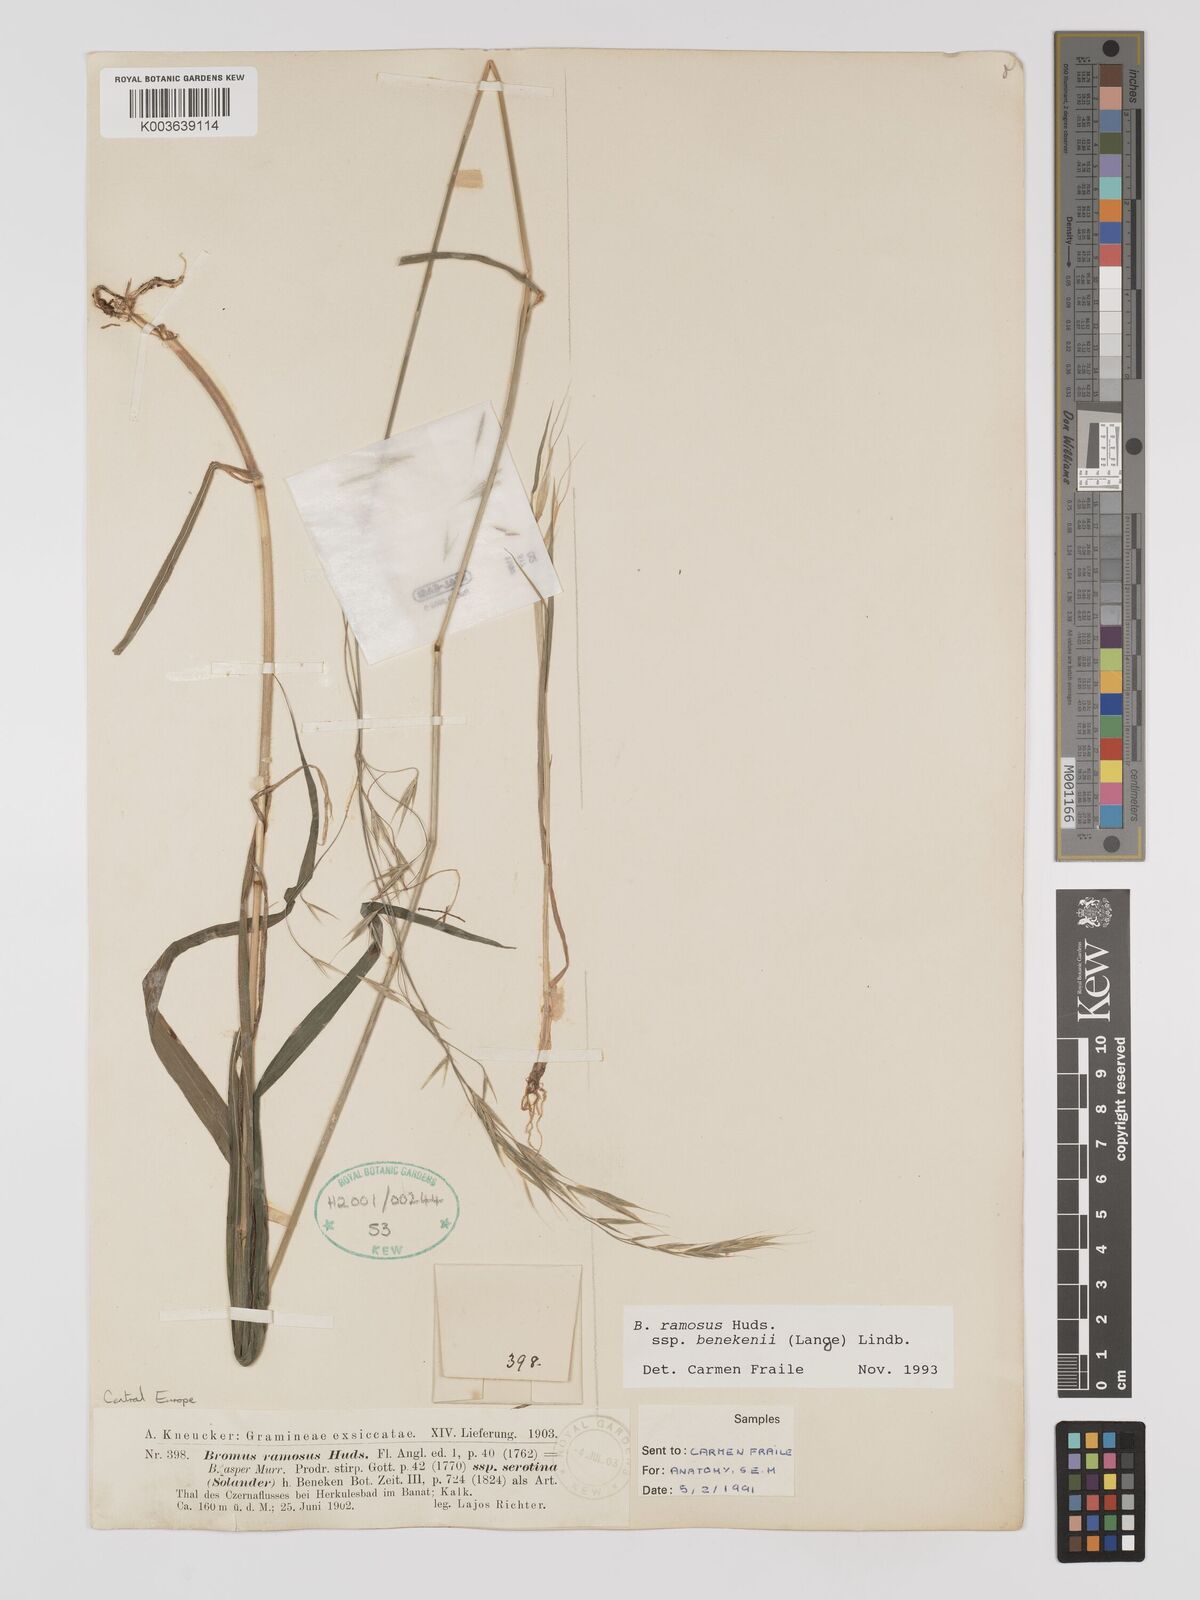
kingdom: Plantae
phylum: Tracheophyta
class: Liliopsida
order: Poales
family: Poaceae
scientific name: Poaceae
